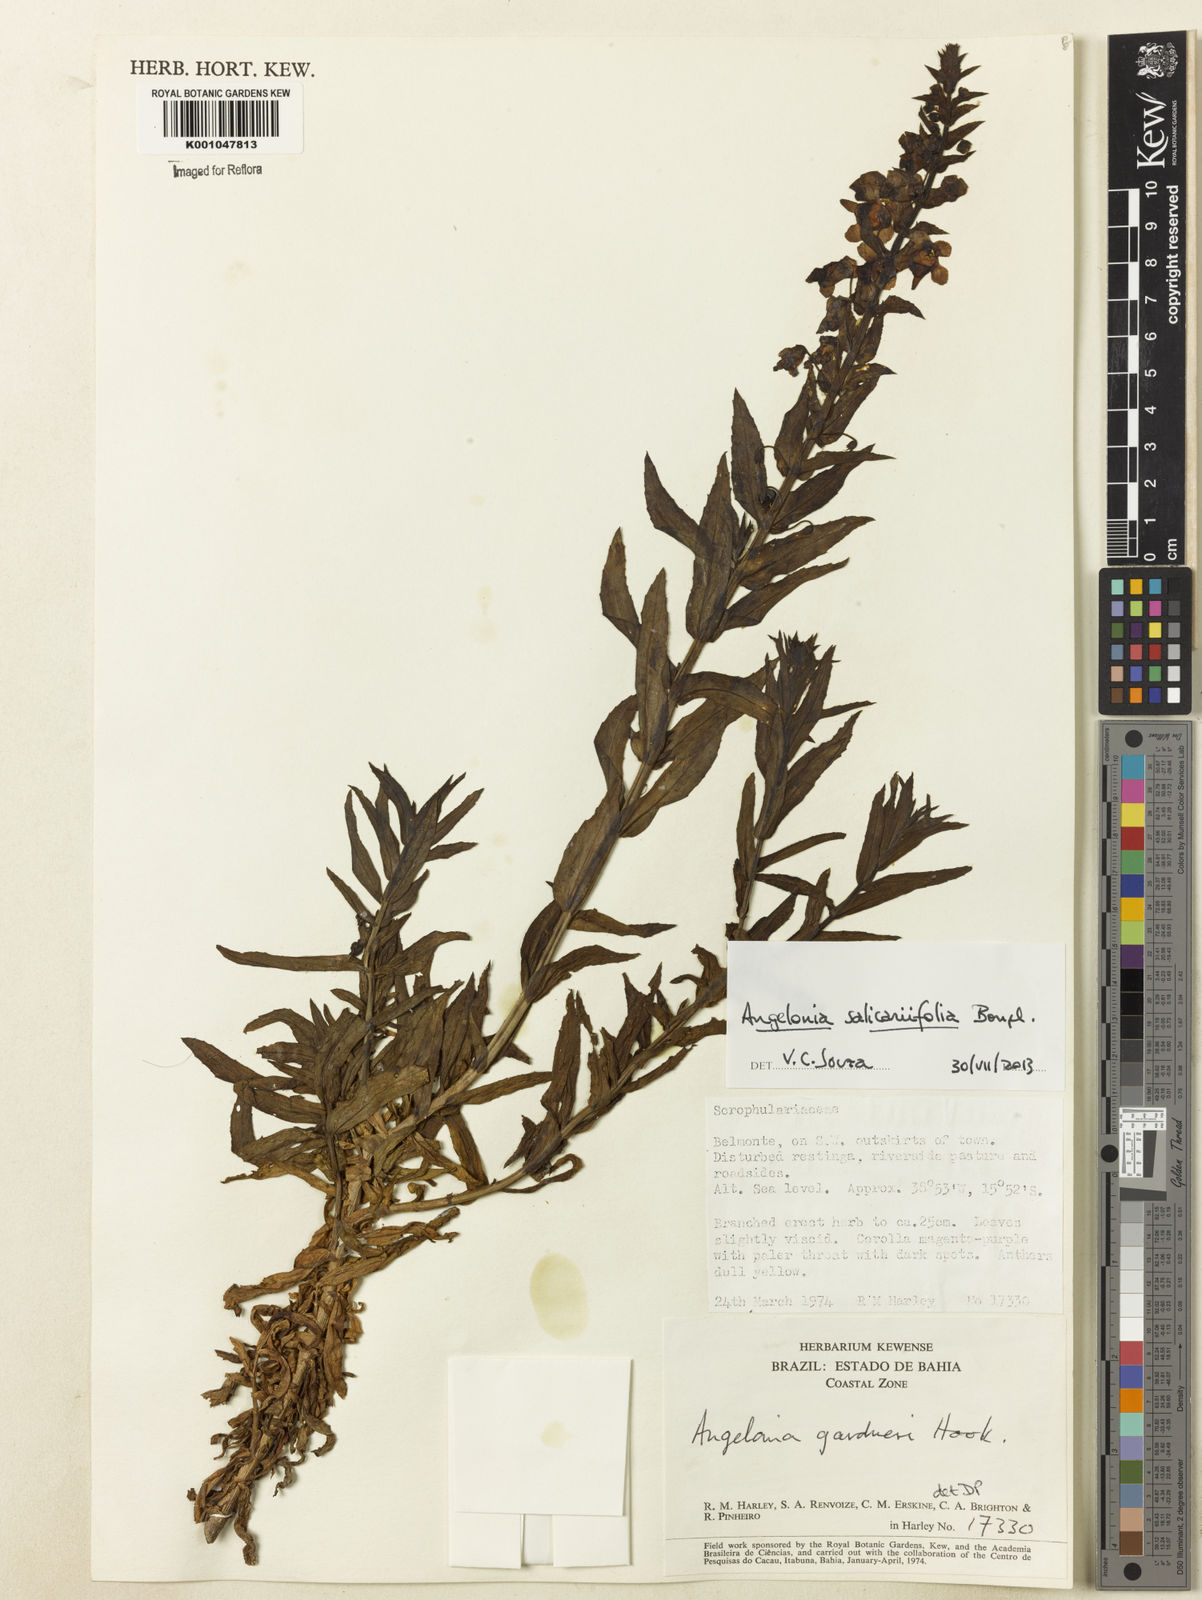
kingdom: Plantae
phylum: Tracheophyta
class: Magnoliopsida
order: Lamiales
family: Plantaginaceae
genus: Angelonia
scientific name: Angelonia salicariifolia
